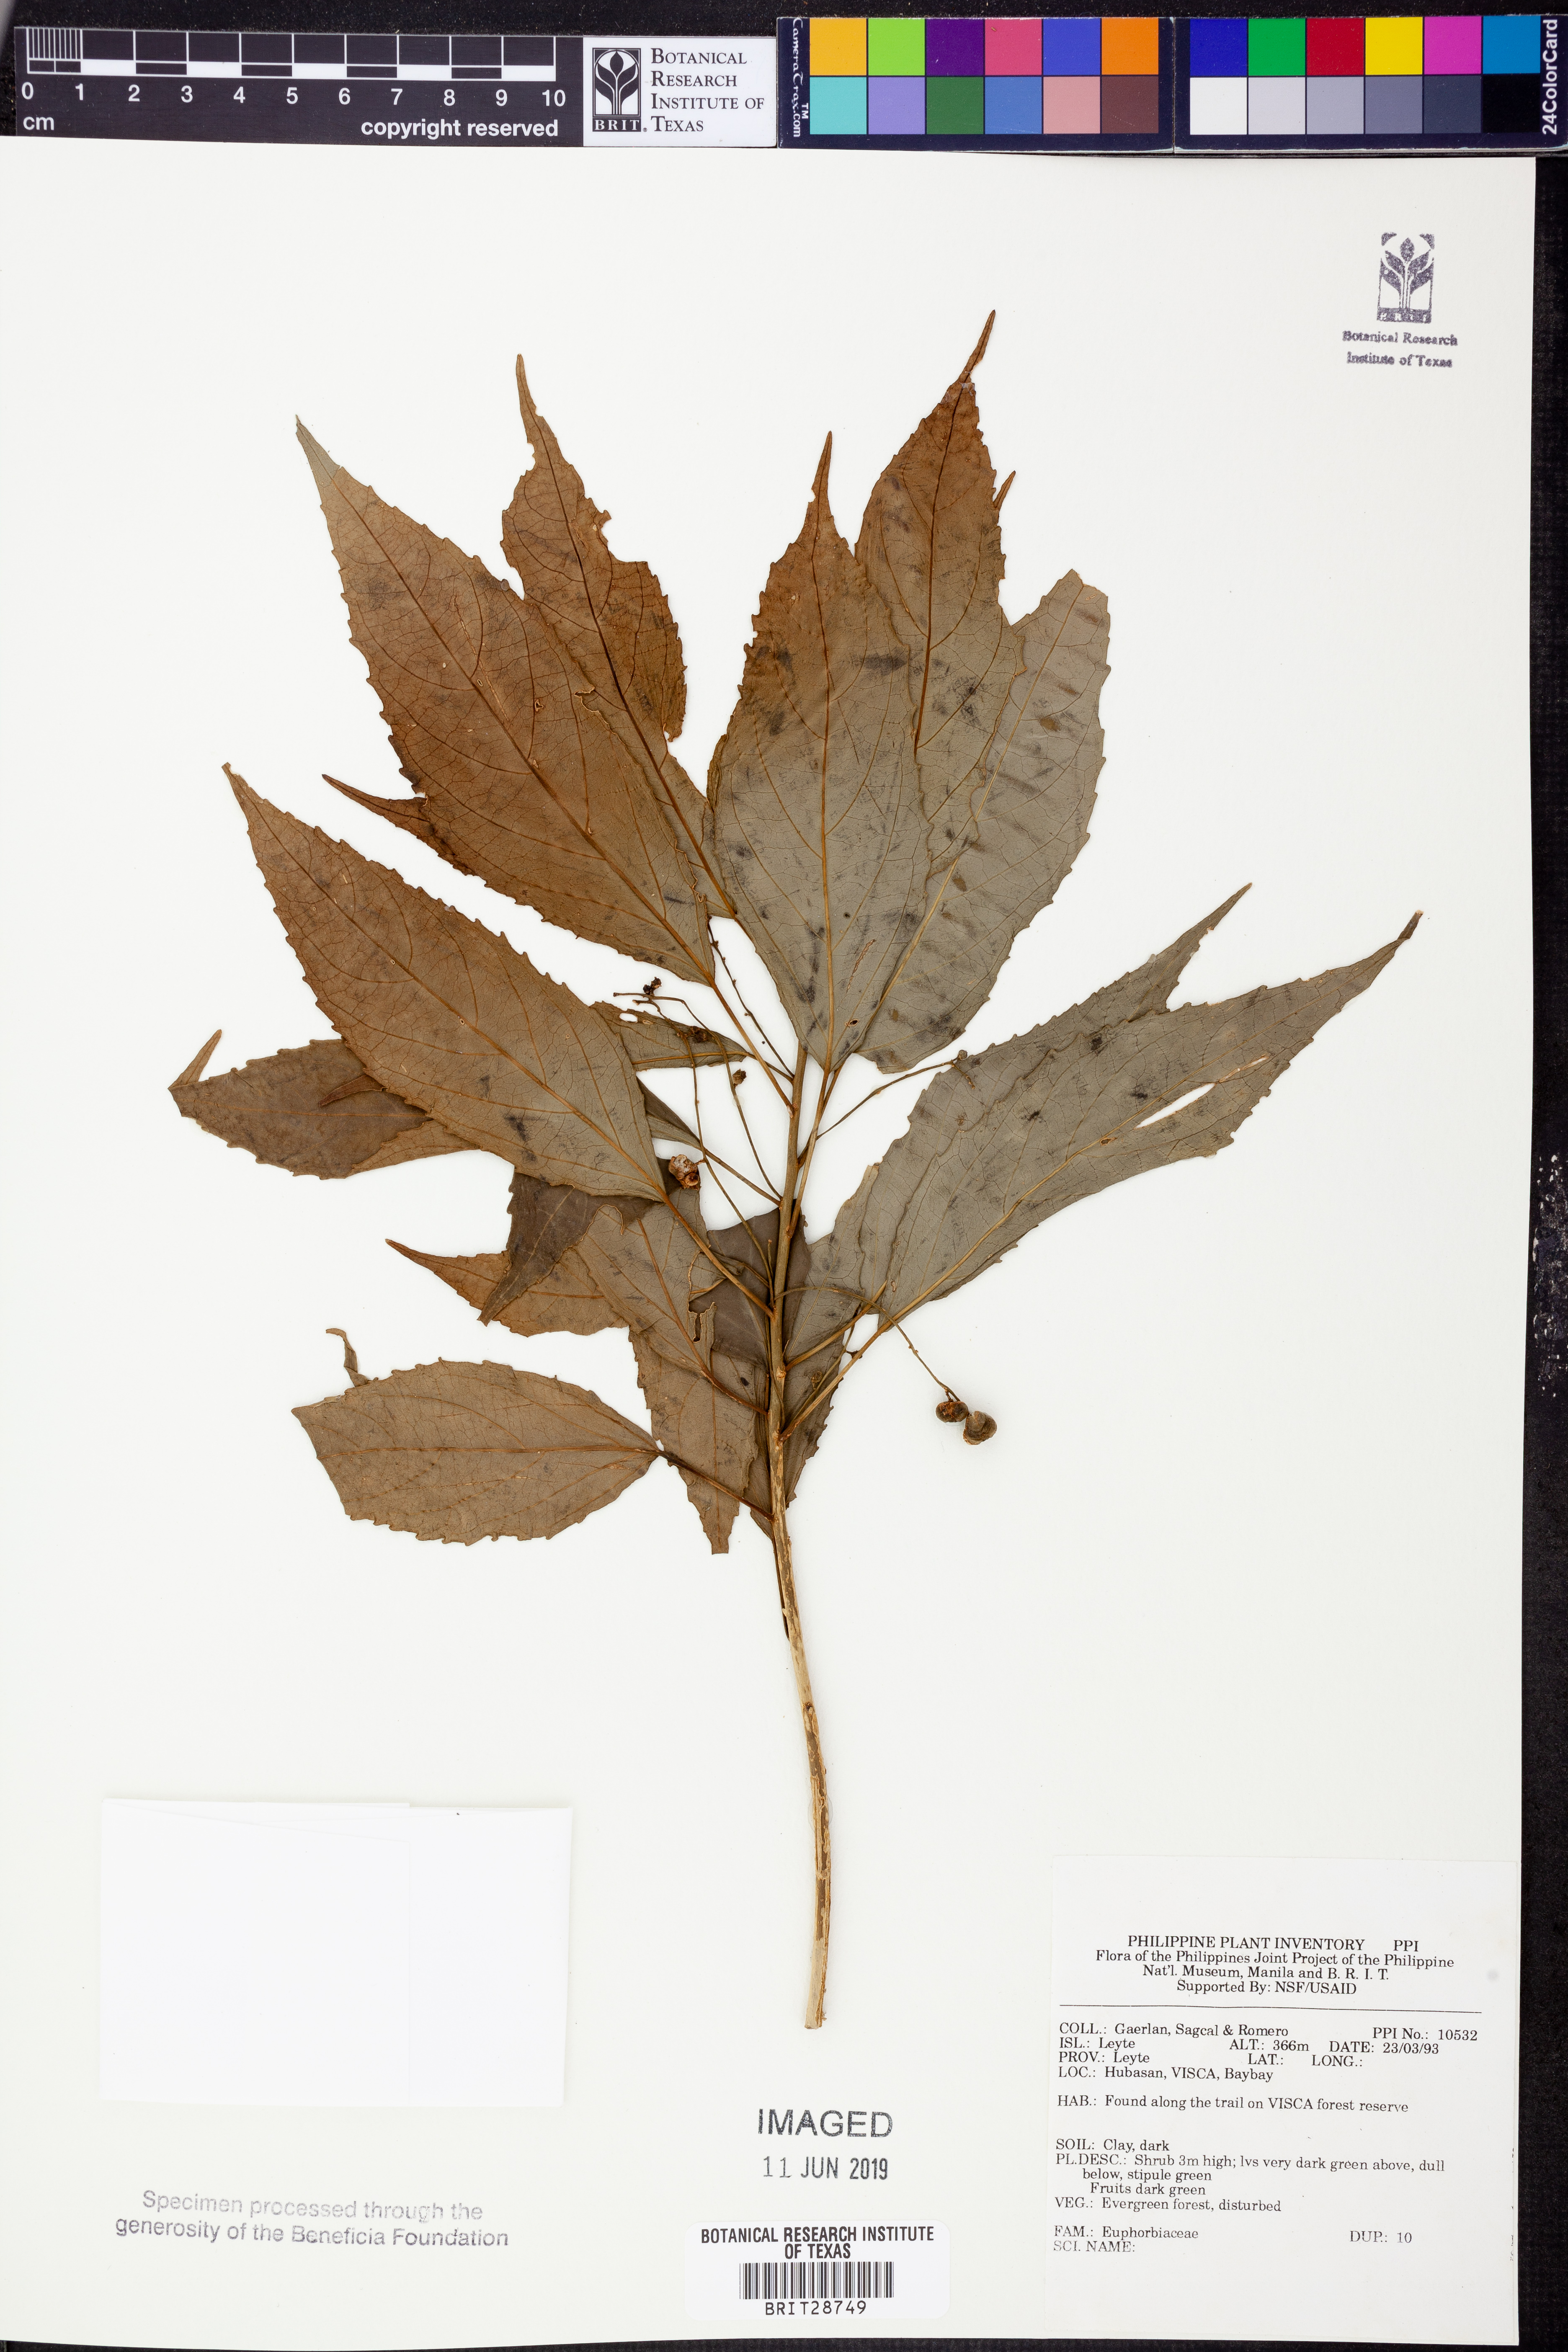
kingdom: Plantae
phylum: Tracheophyta
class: Magnoliopsida
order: Malpighiales
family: Euphorbiaceae
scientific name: Euphorbiaceae
